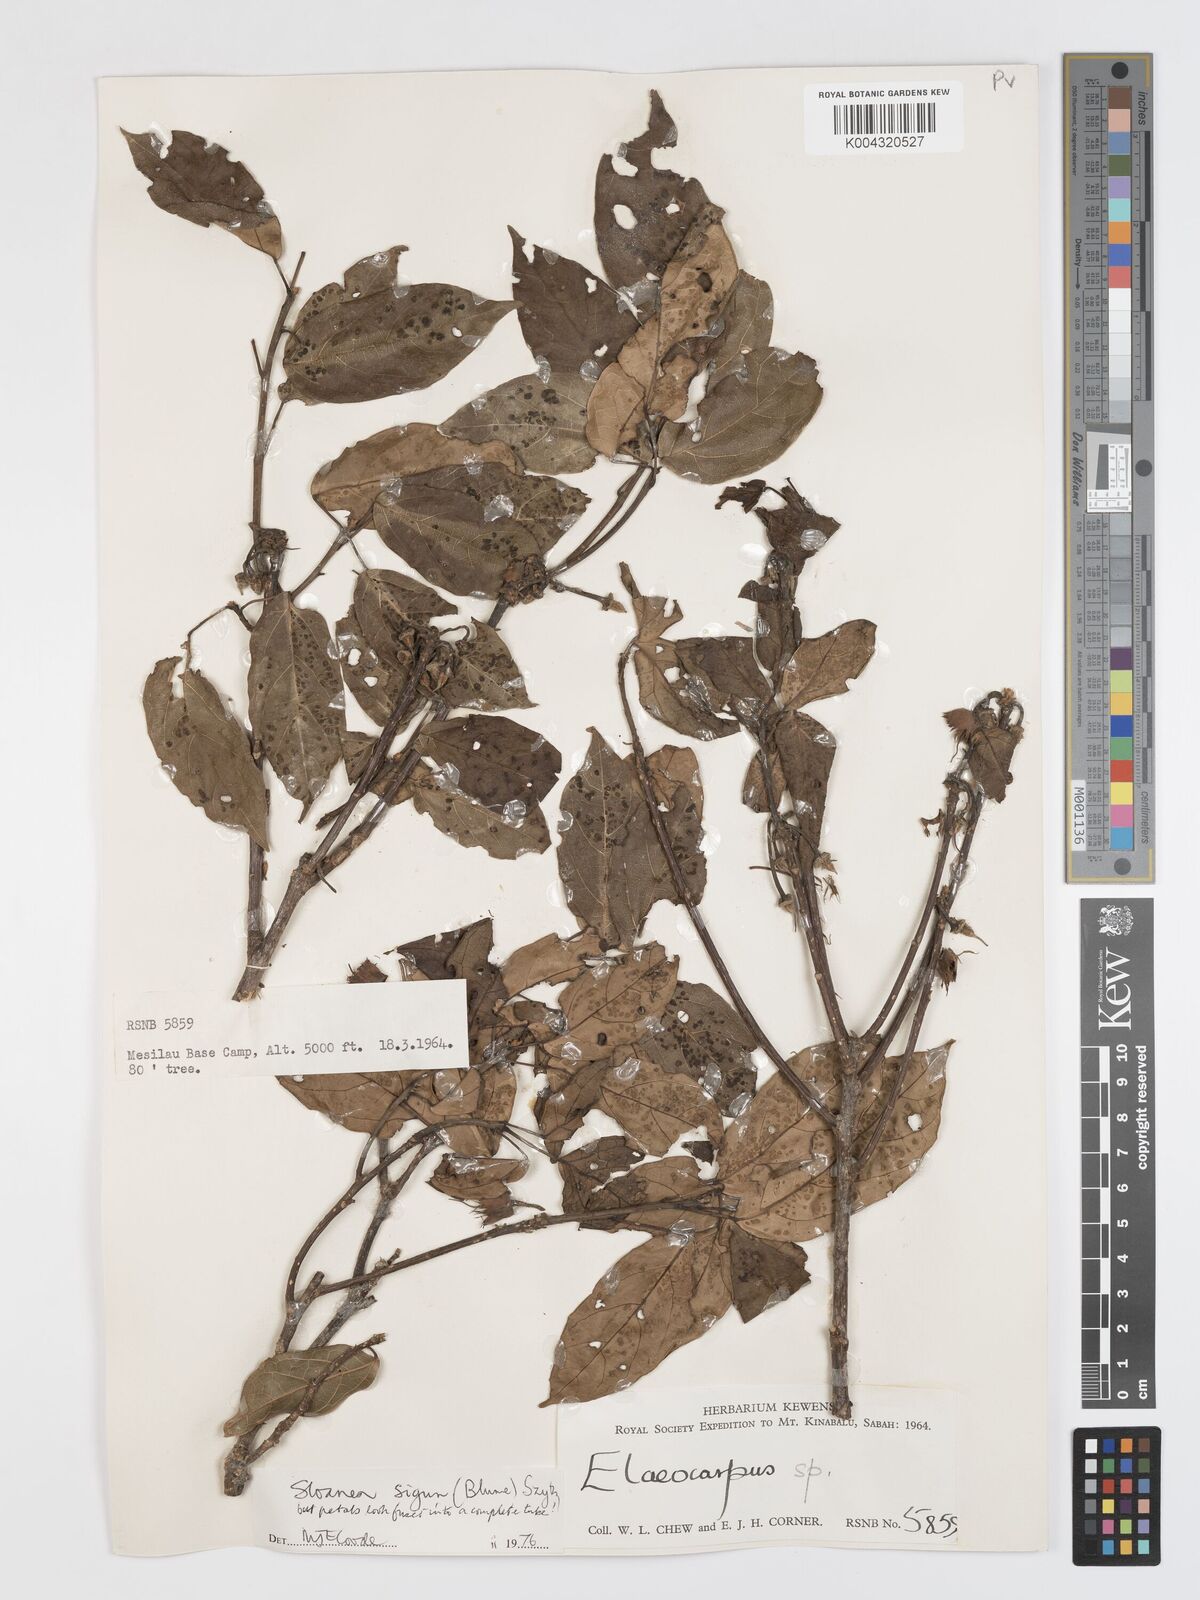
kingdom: Plantae
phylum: Tracheophyta
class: Magnoliopsida
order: Oxalidales
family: Elaeocarpaceae
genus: Sloanea
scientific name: Sloanea sigun
